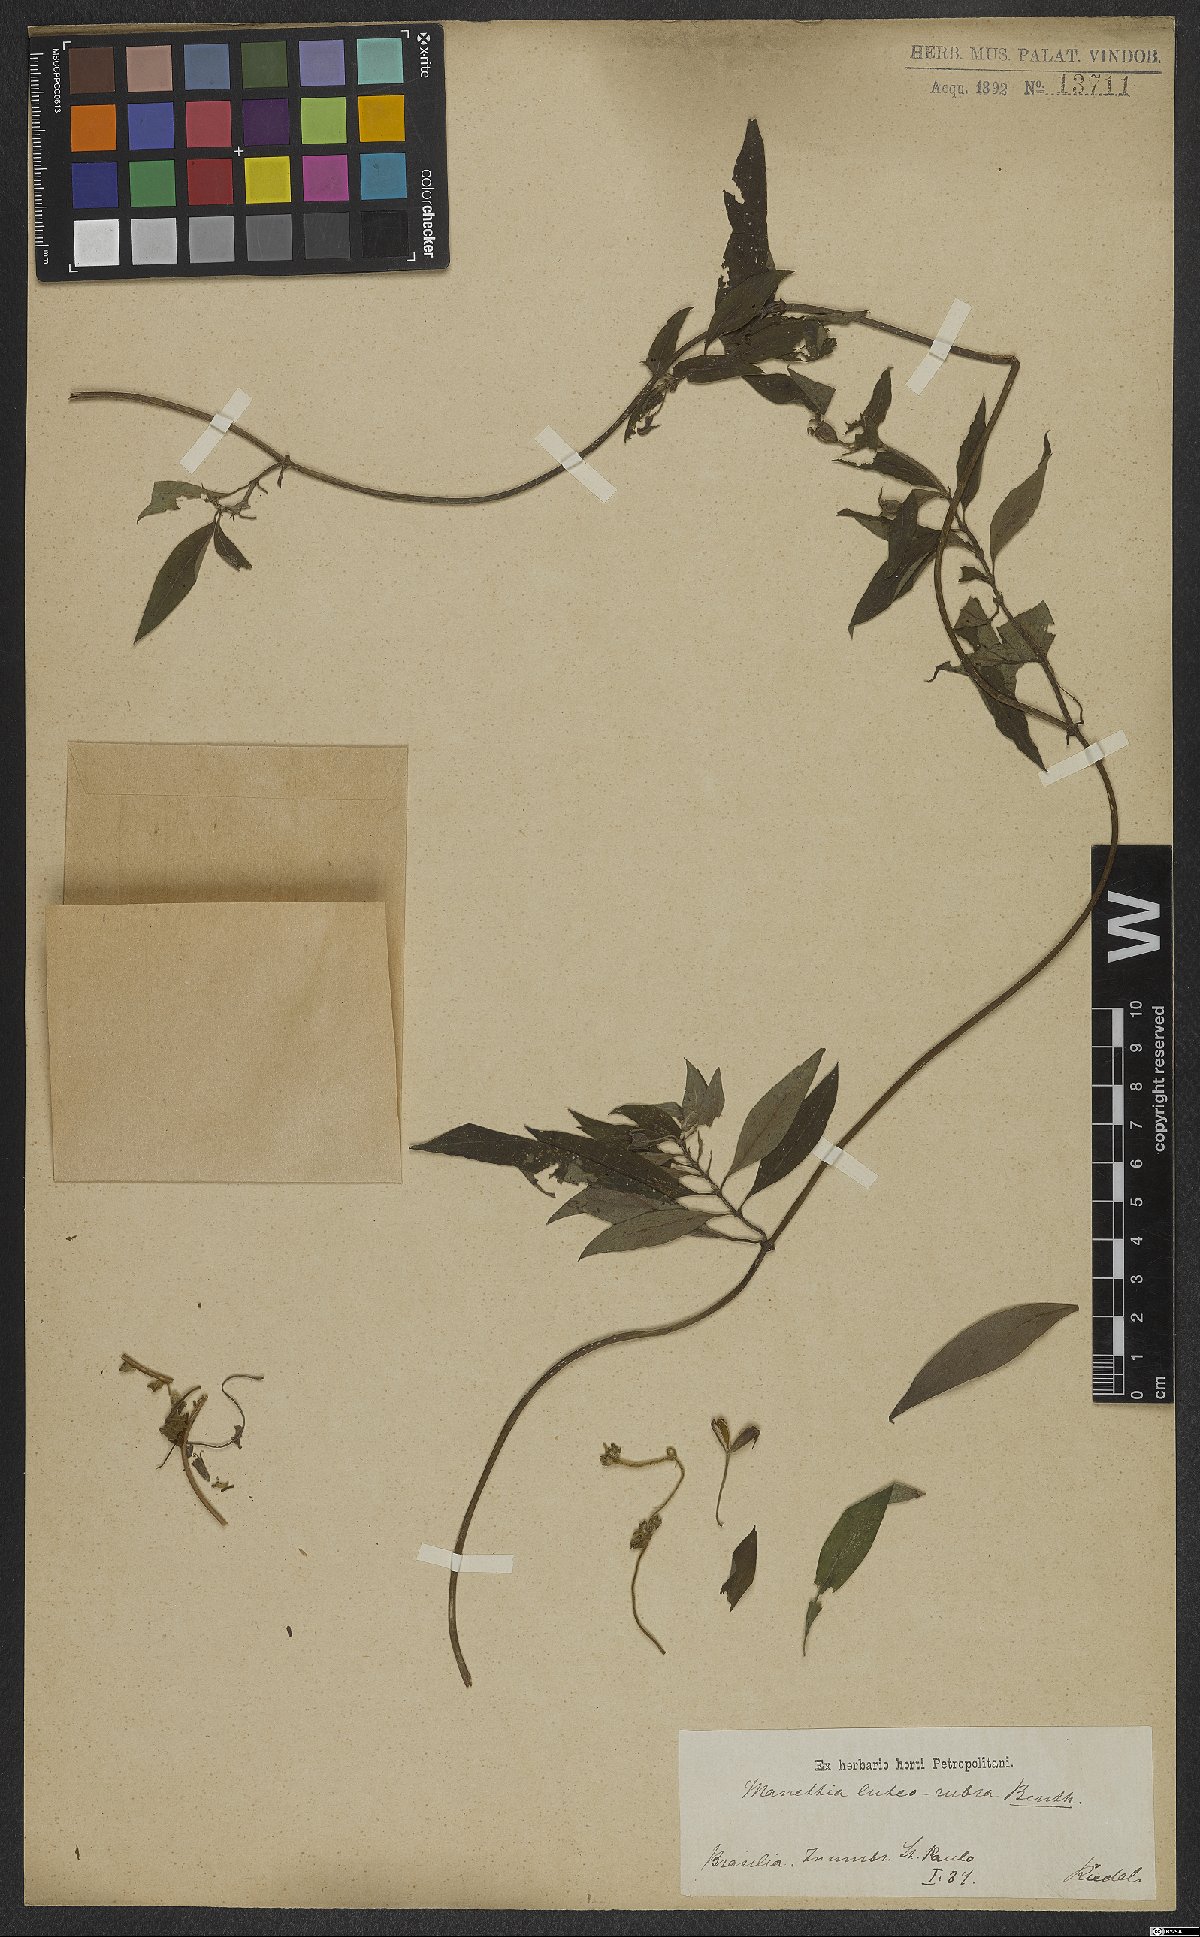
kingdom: Plantae
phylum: Tracheophyta
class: Magnoliopsida
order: Gentianales
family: Rubiaceae
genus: Manettia
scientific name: Manettia luteorubra
